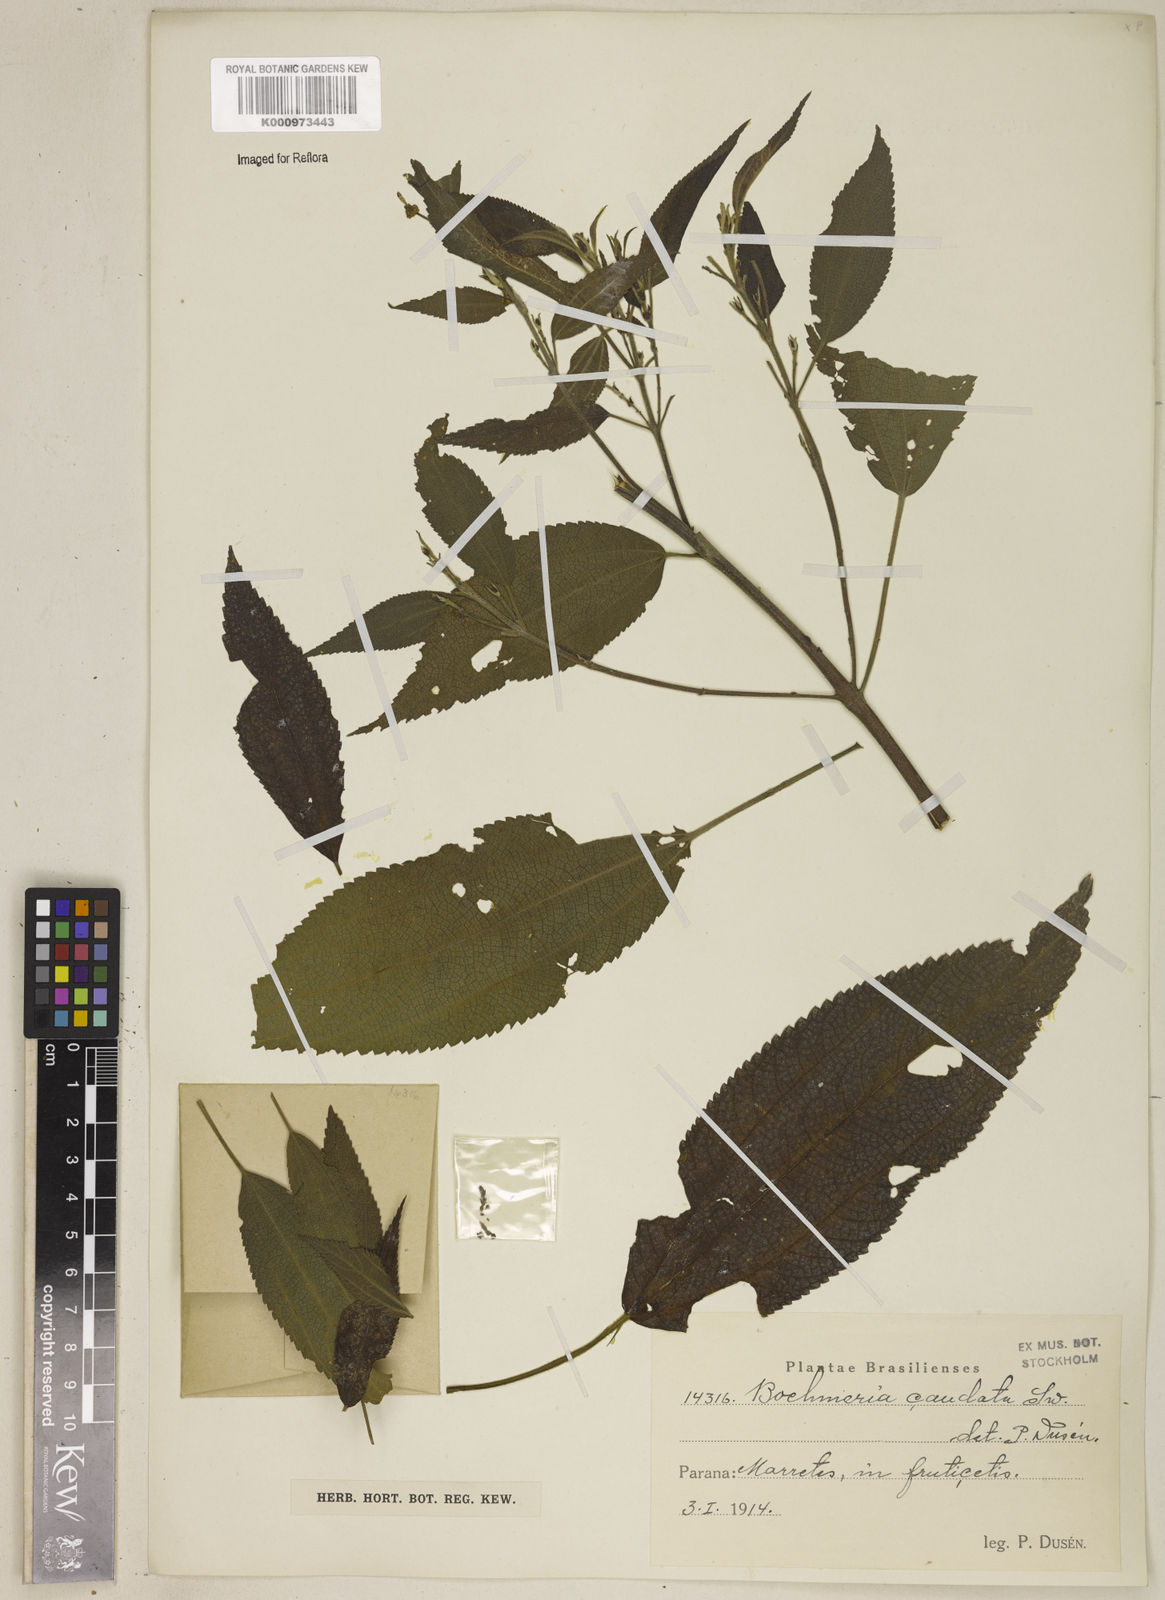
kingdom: Plantae
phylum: Tracheophyta
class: Magnoliopsida
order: Rosales
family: Urticaceae
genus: Boehmeria
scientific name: Boehmeria caudata
